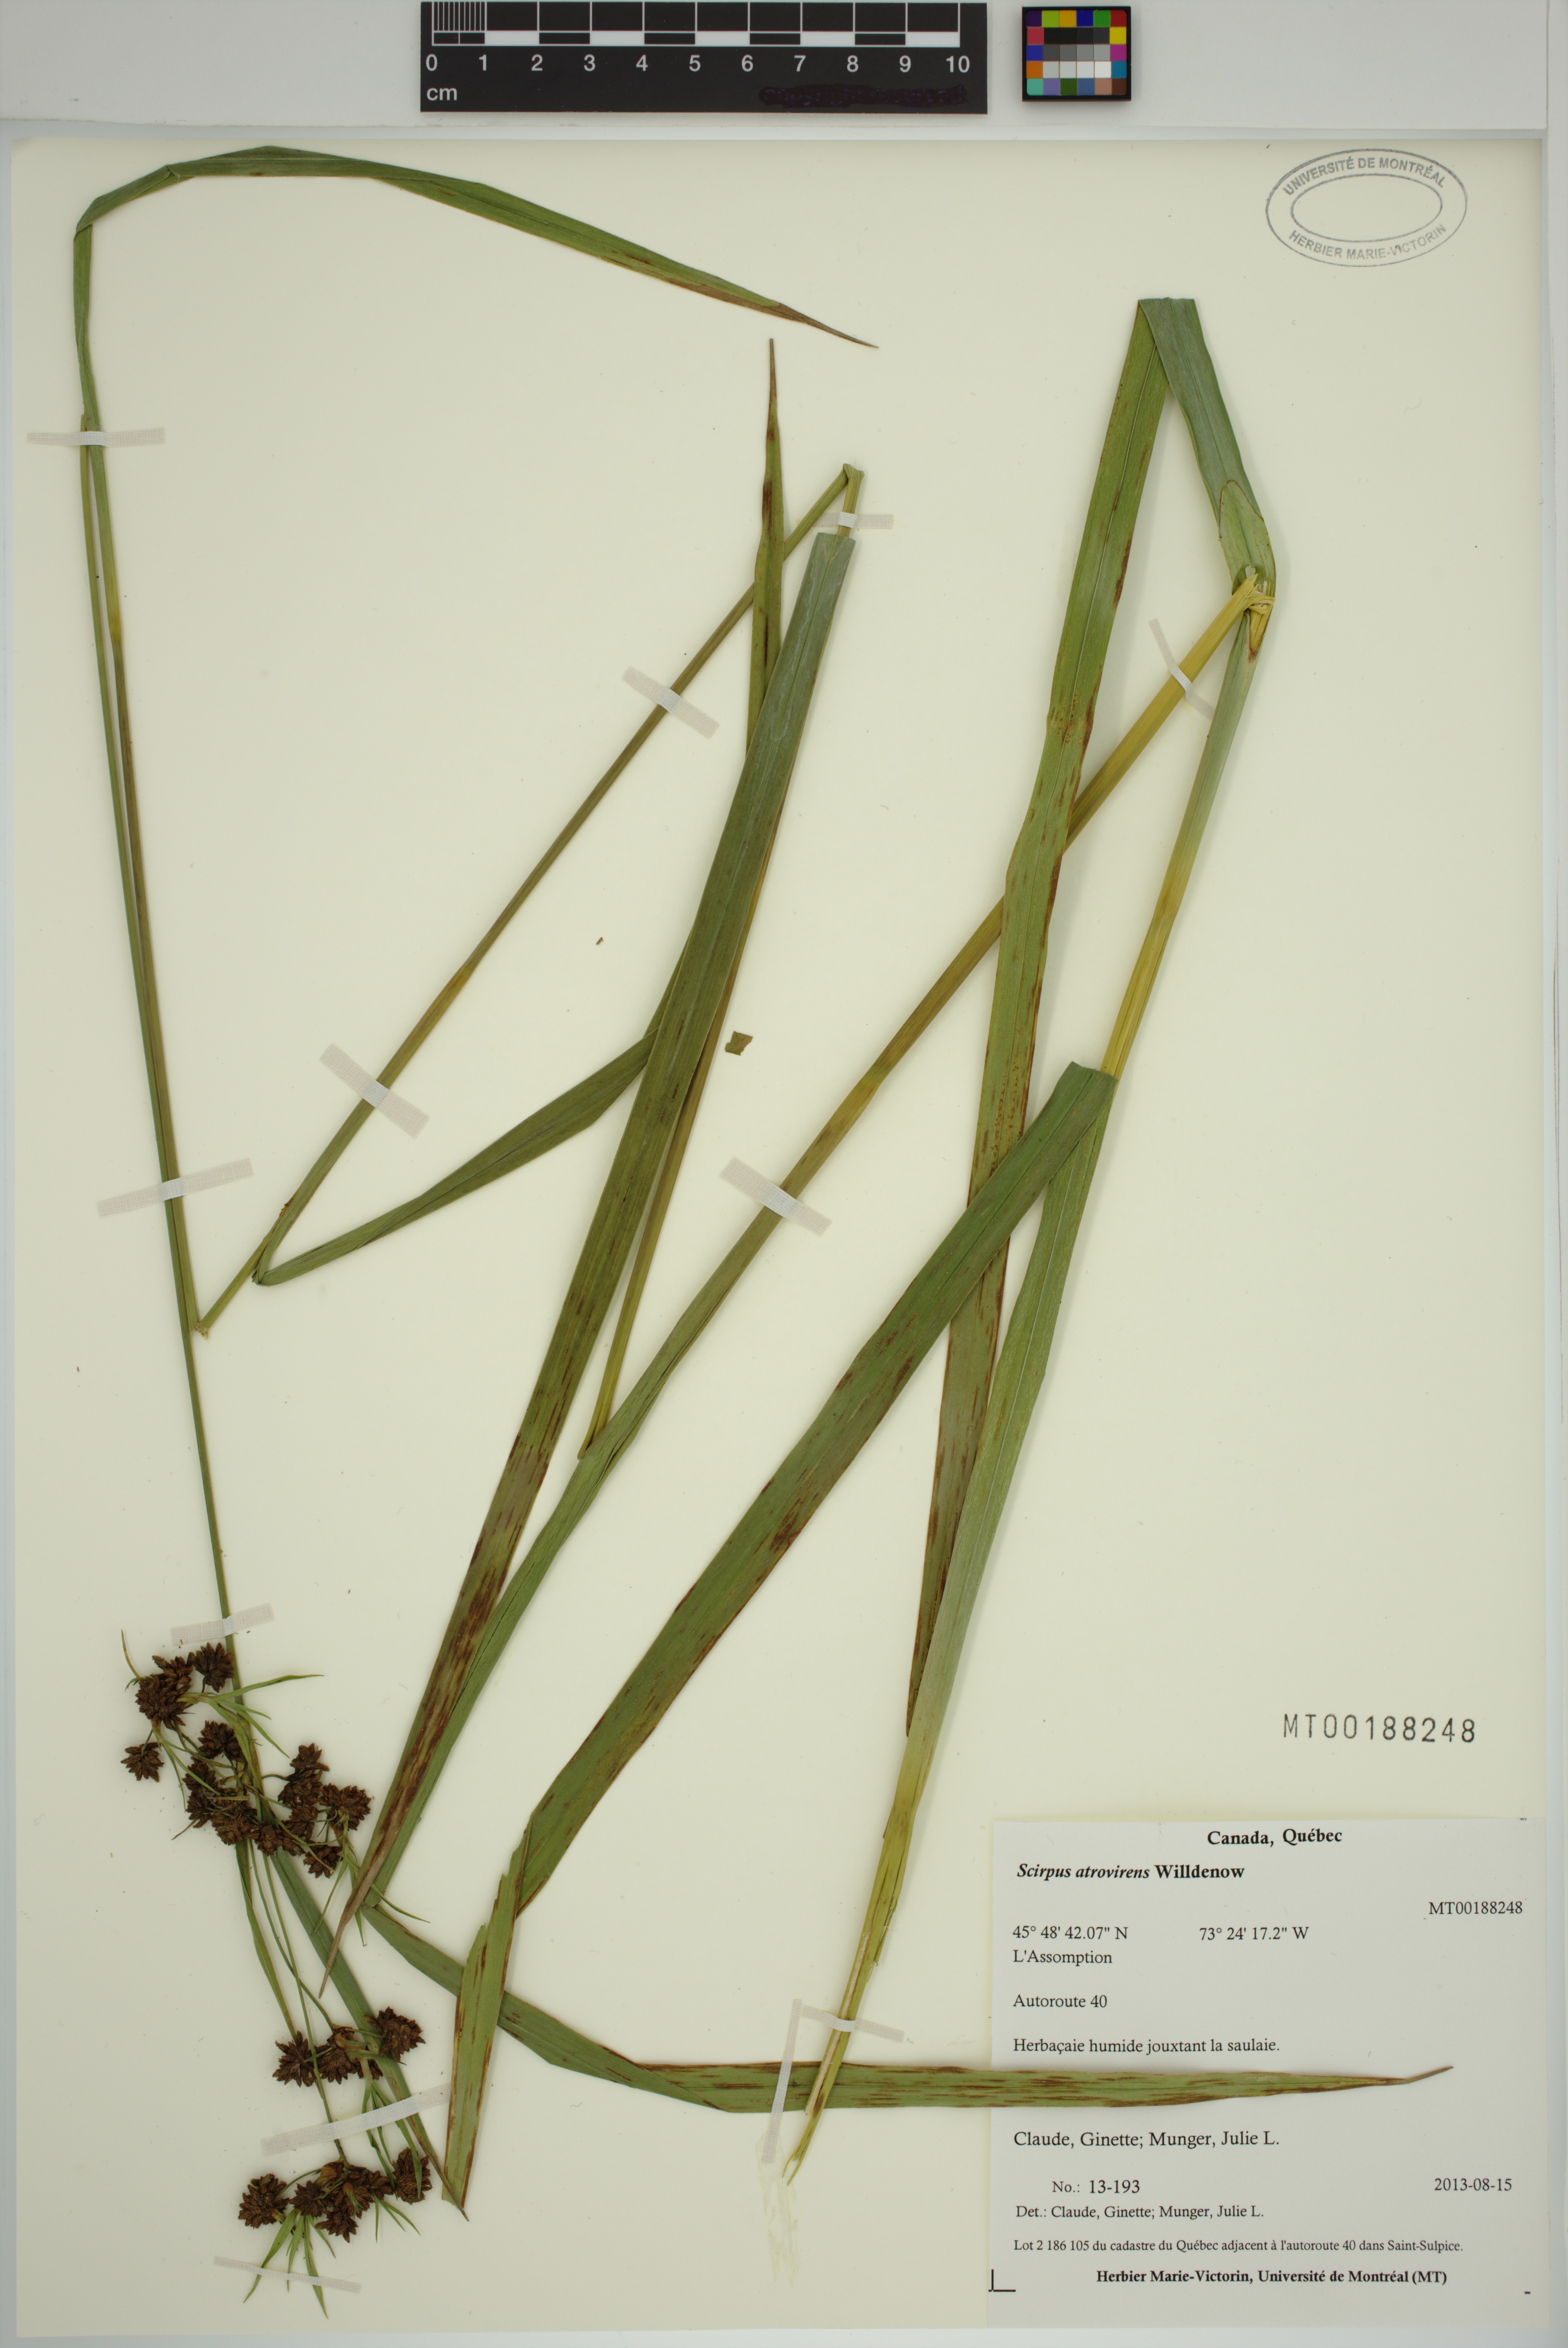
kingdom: Plantae
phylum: Tracheophyta
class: Liliopsida
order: Poales
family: Cyperaceae
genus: Scirpus
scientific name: Scirpus atrovirens
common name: Black bulrush
